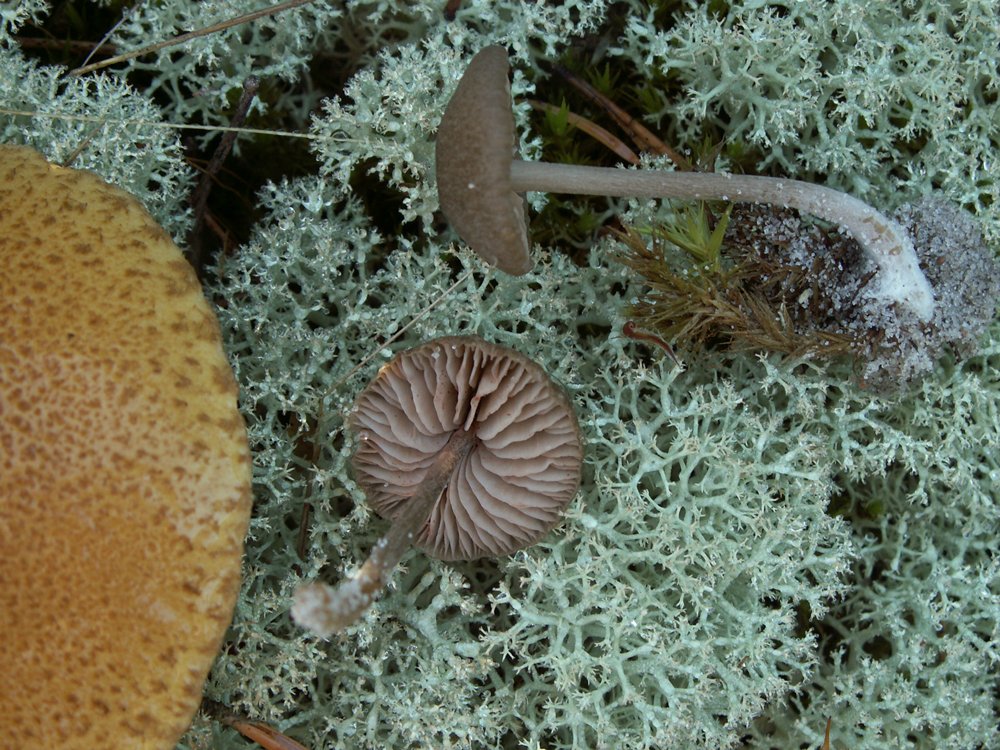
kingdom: Fungi
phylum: Basidiomycota
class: Agaricomycetes
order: Agaricales
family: Entolomataceae
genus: Entocybe
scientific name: Entocybe turbida
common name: plantage-rødblad
